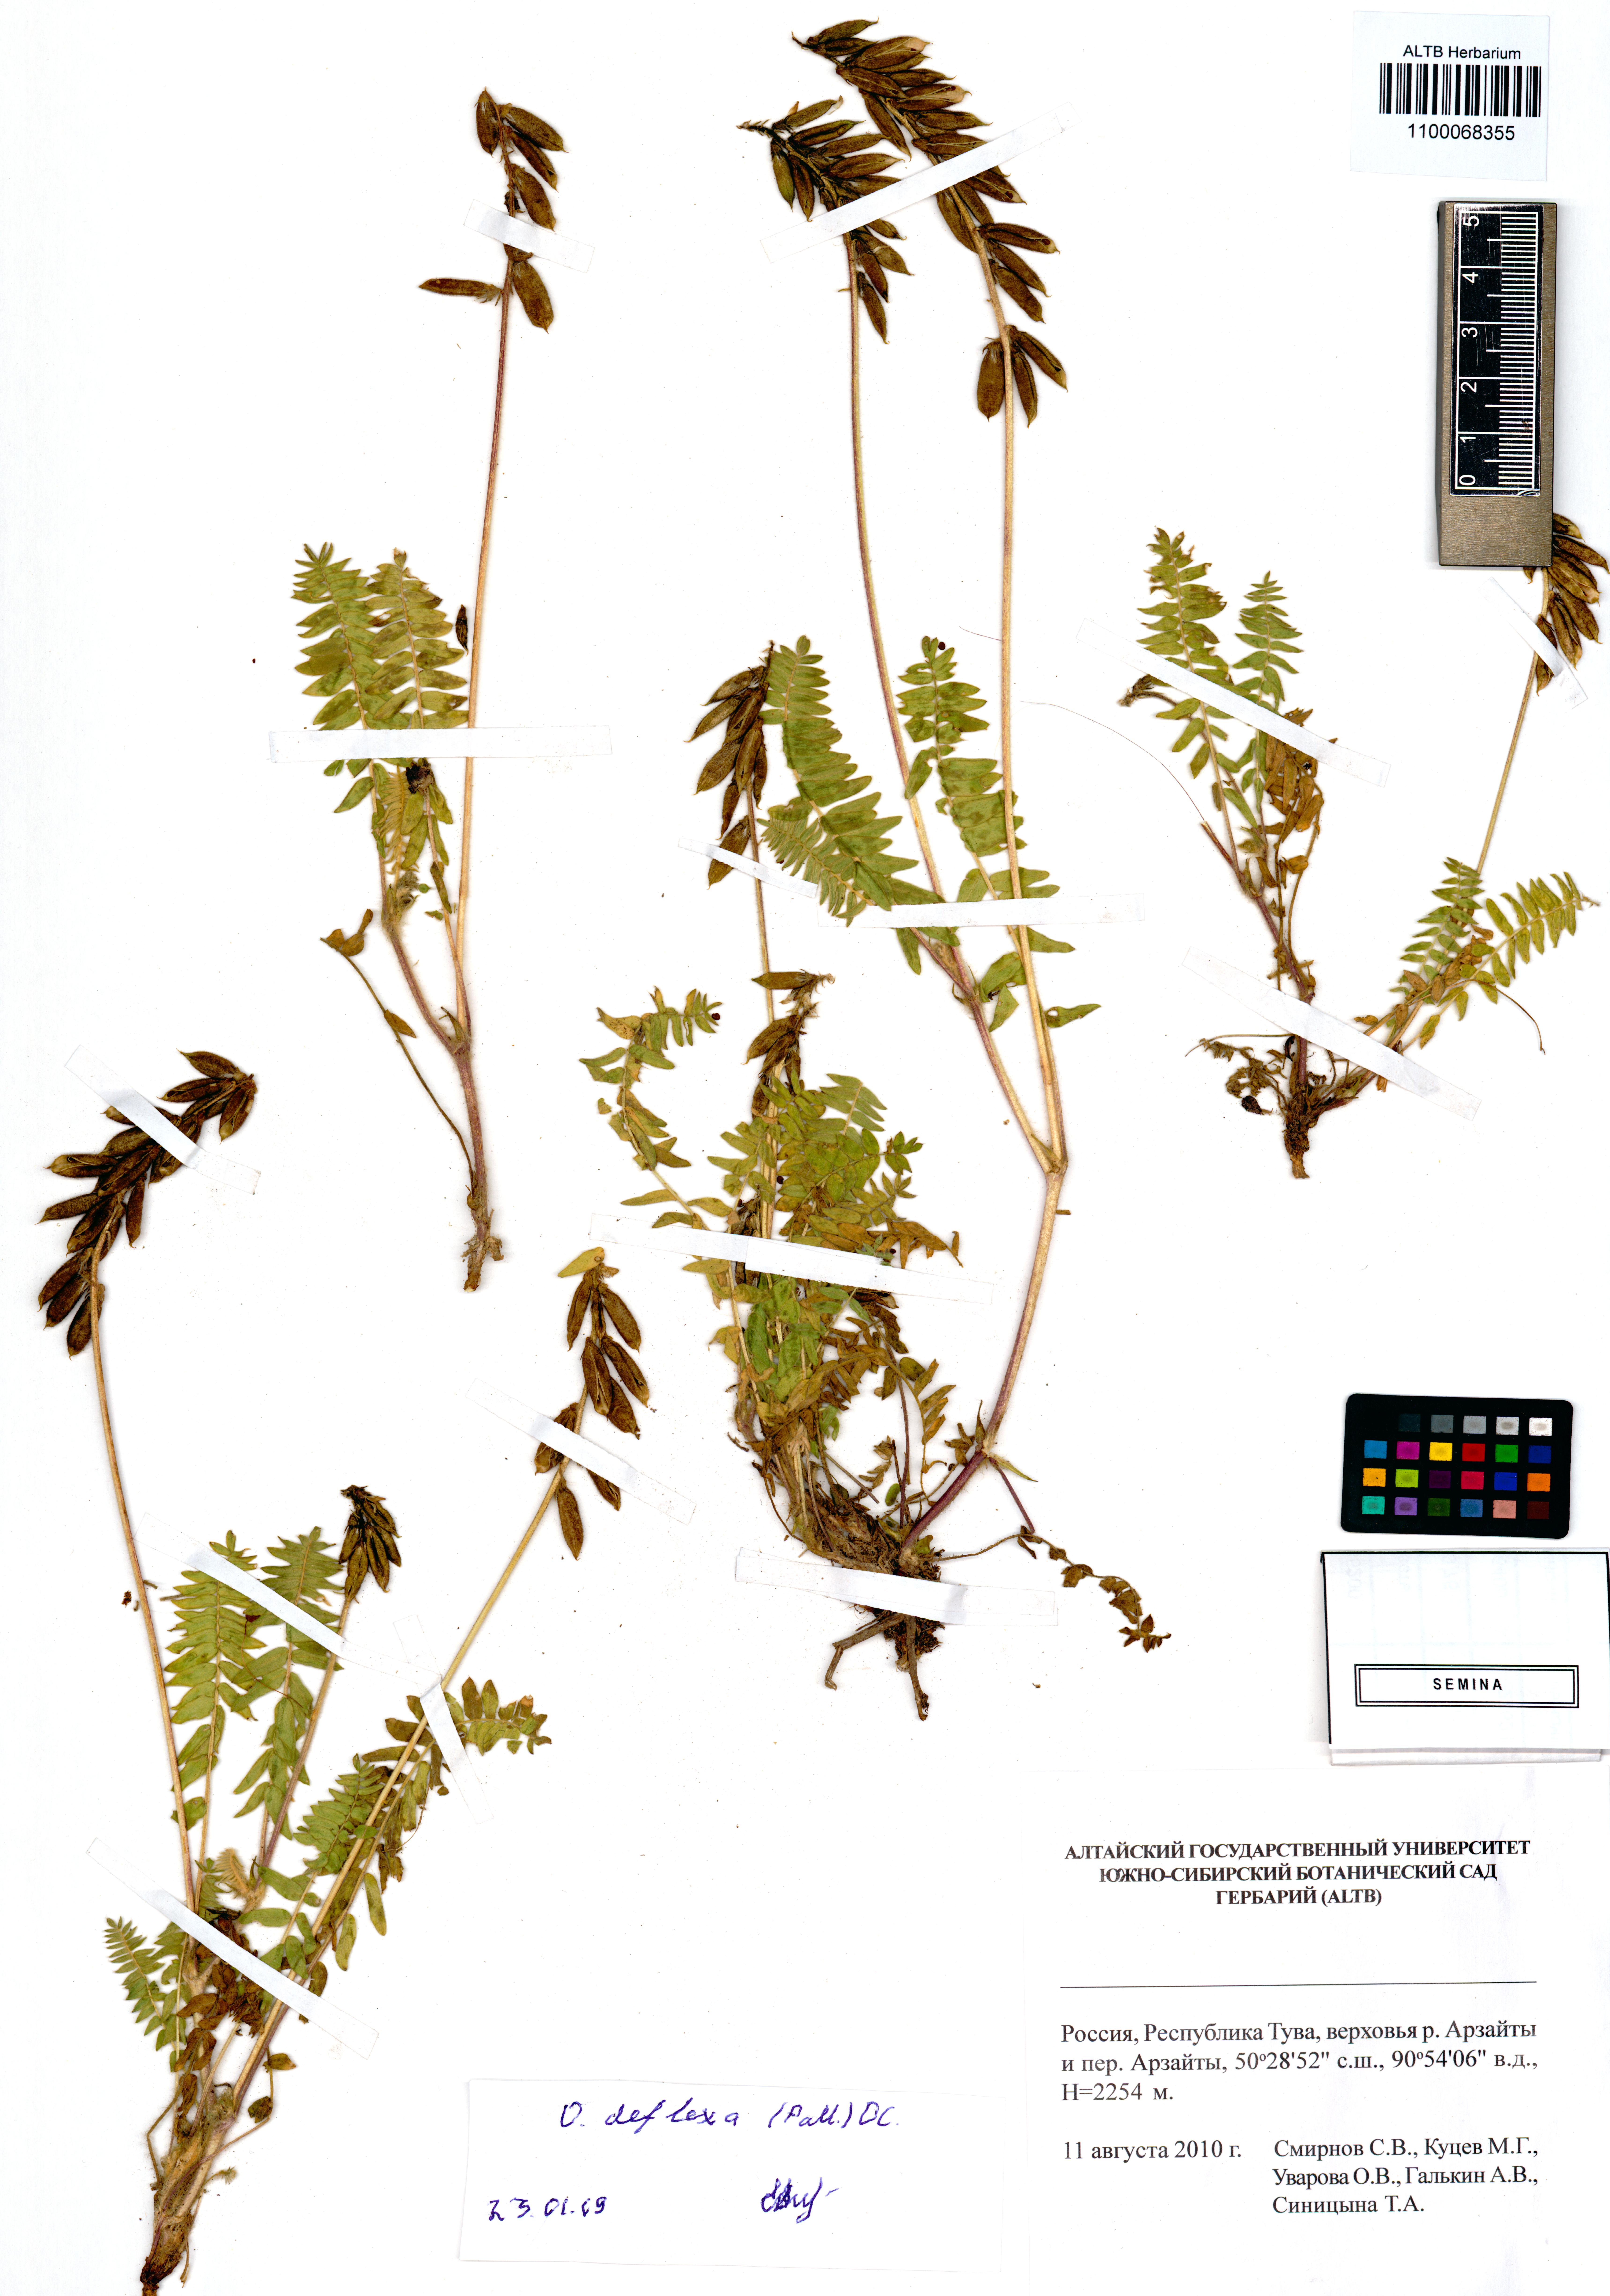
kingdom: Plantae
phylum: Tracheophyta
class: Magnoliopsida
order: Fabales
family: Fabaceae
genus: Oxytropis
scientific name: Oxytropis deflexa
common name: Stemmed oxytrope
